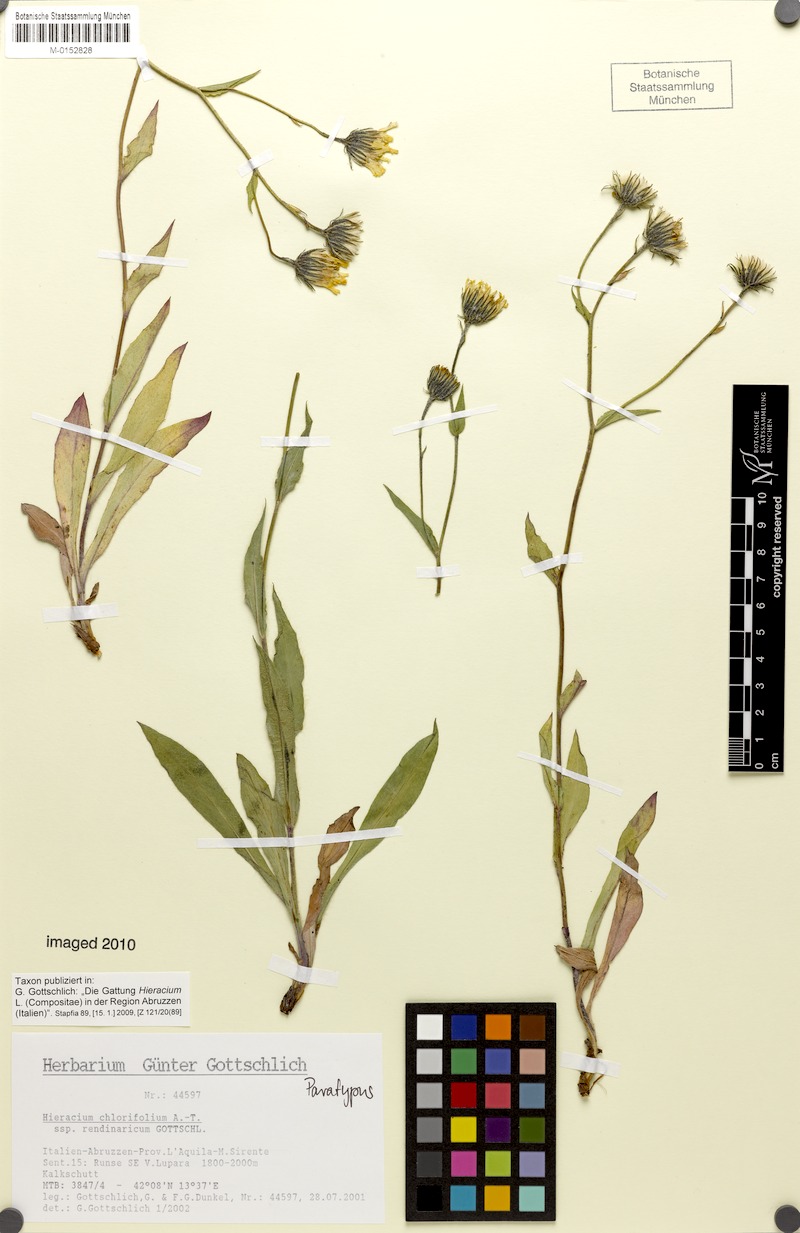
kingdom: Plantae
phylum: Tracheophyta
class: Magnoliopsida
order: Asterales
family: Asteraceae
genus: Hieracium
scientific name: Hieracium chlorifolium
